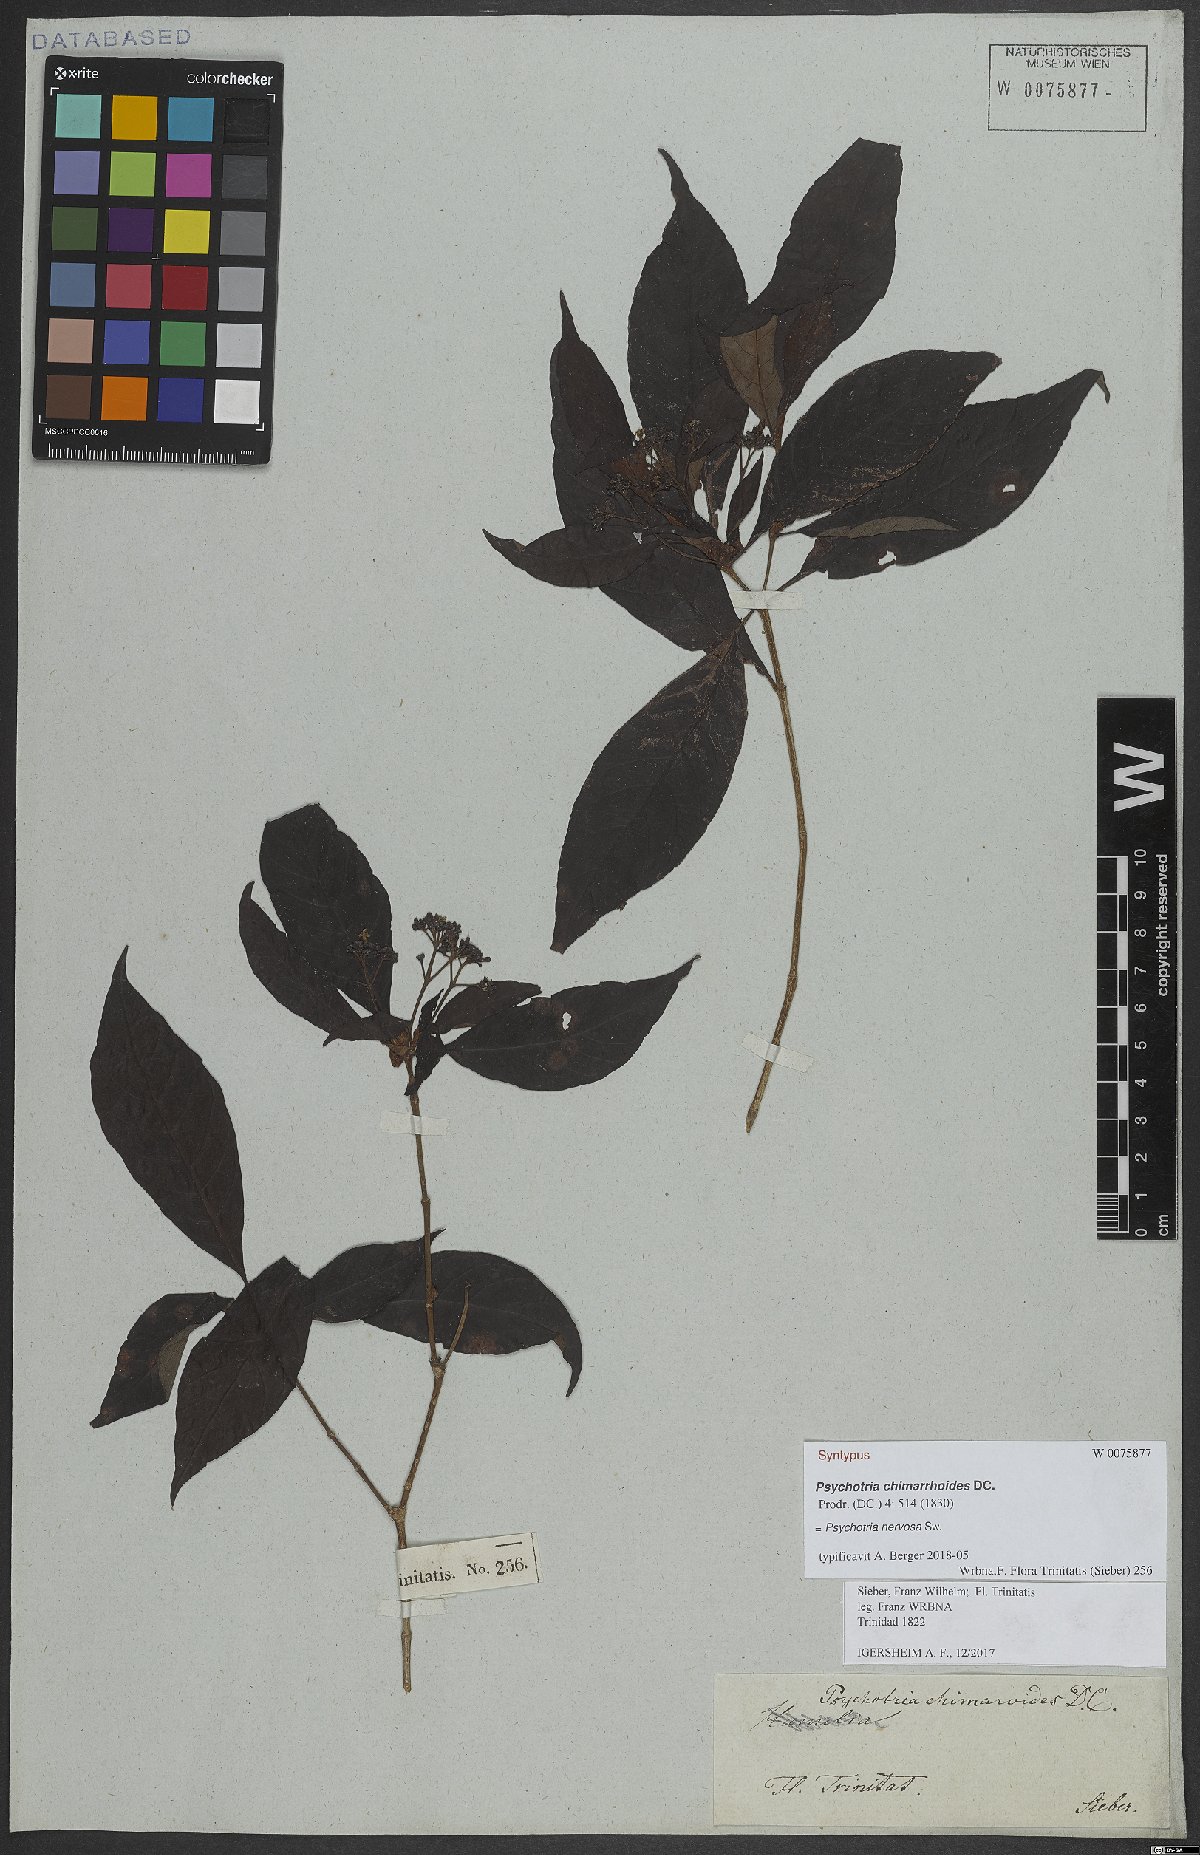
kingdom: Plantae
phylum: Tracheophyta
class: Magnoliopsida
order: Gentianales
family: Rubiaceae
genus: Psychotria
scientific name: Psychotria nervosa
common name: Bastard cankerberry
